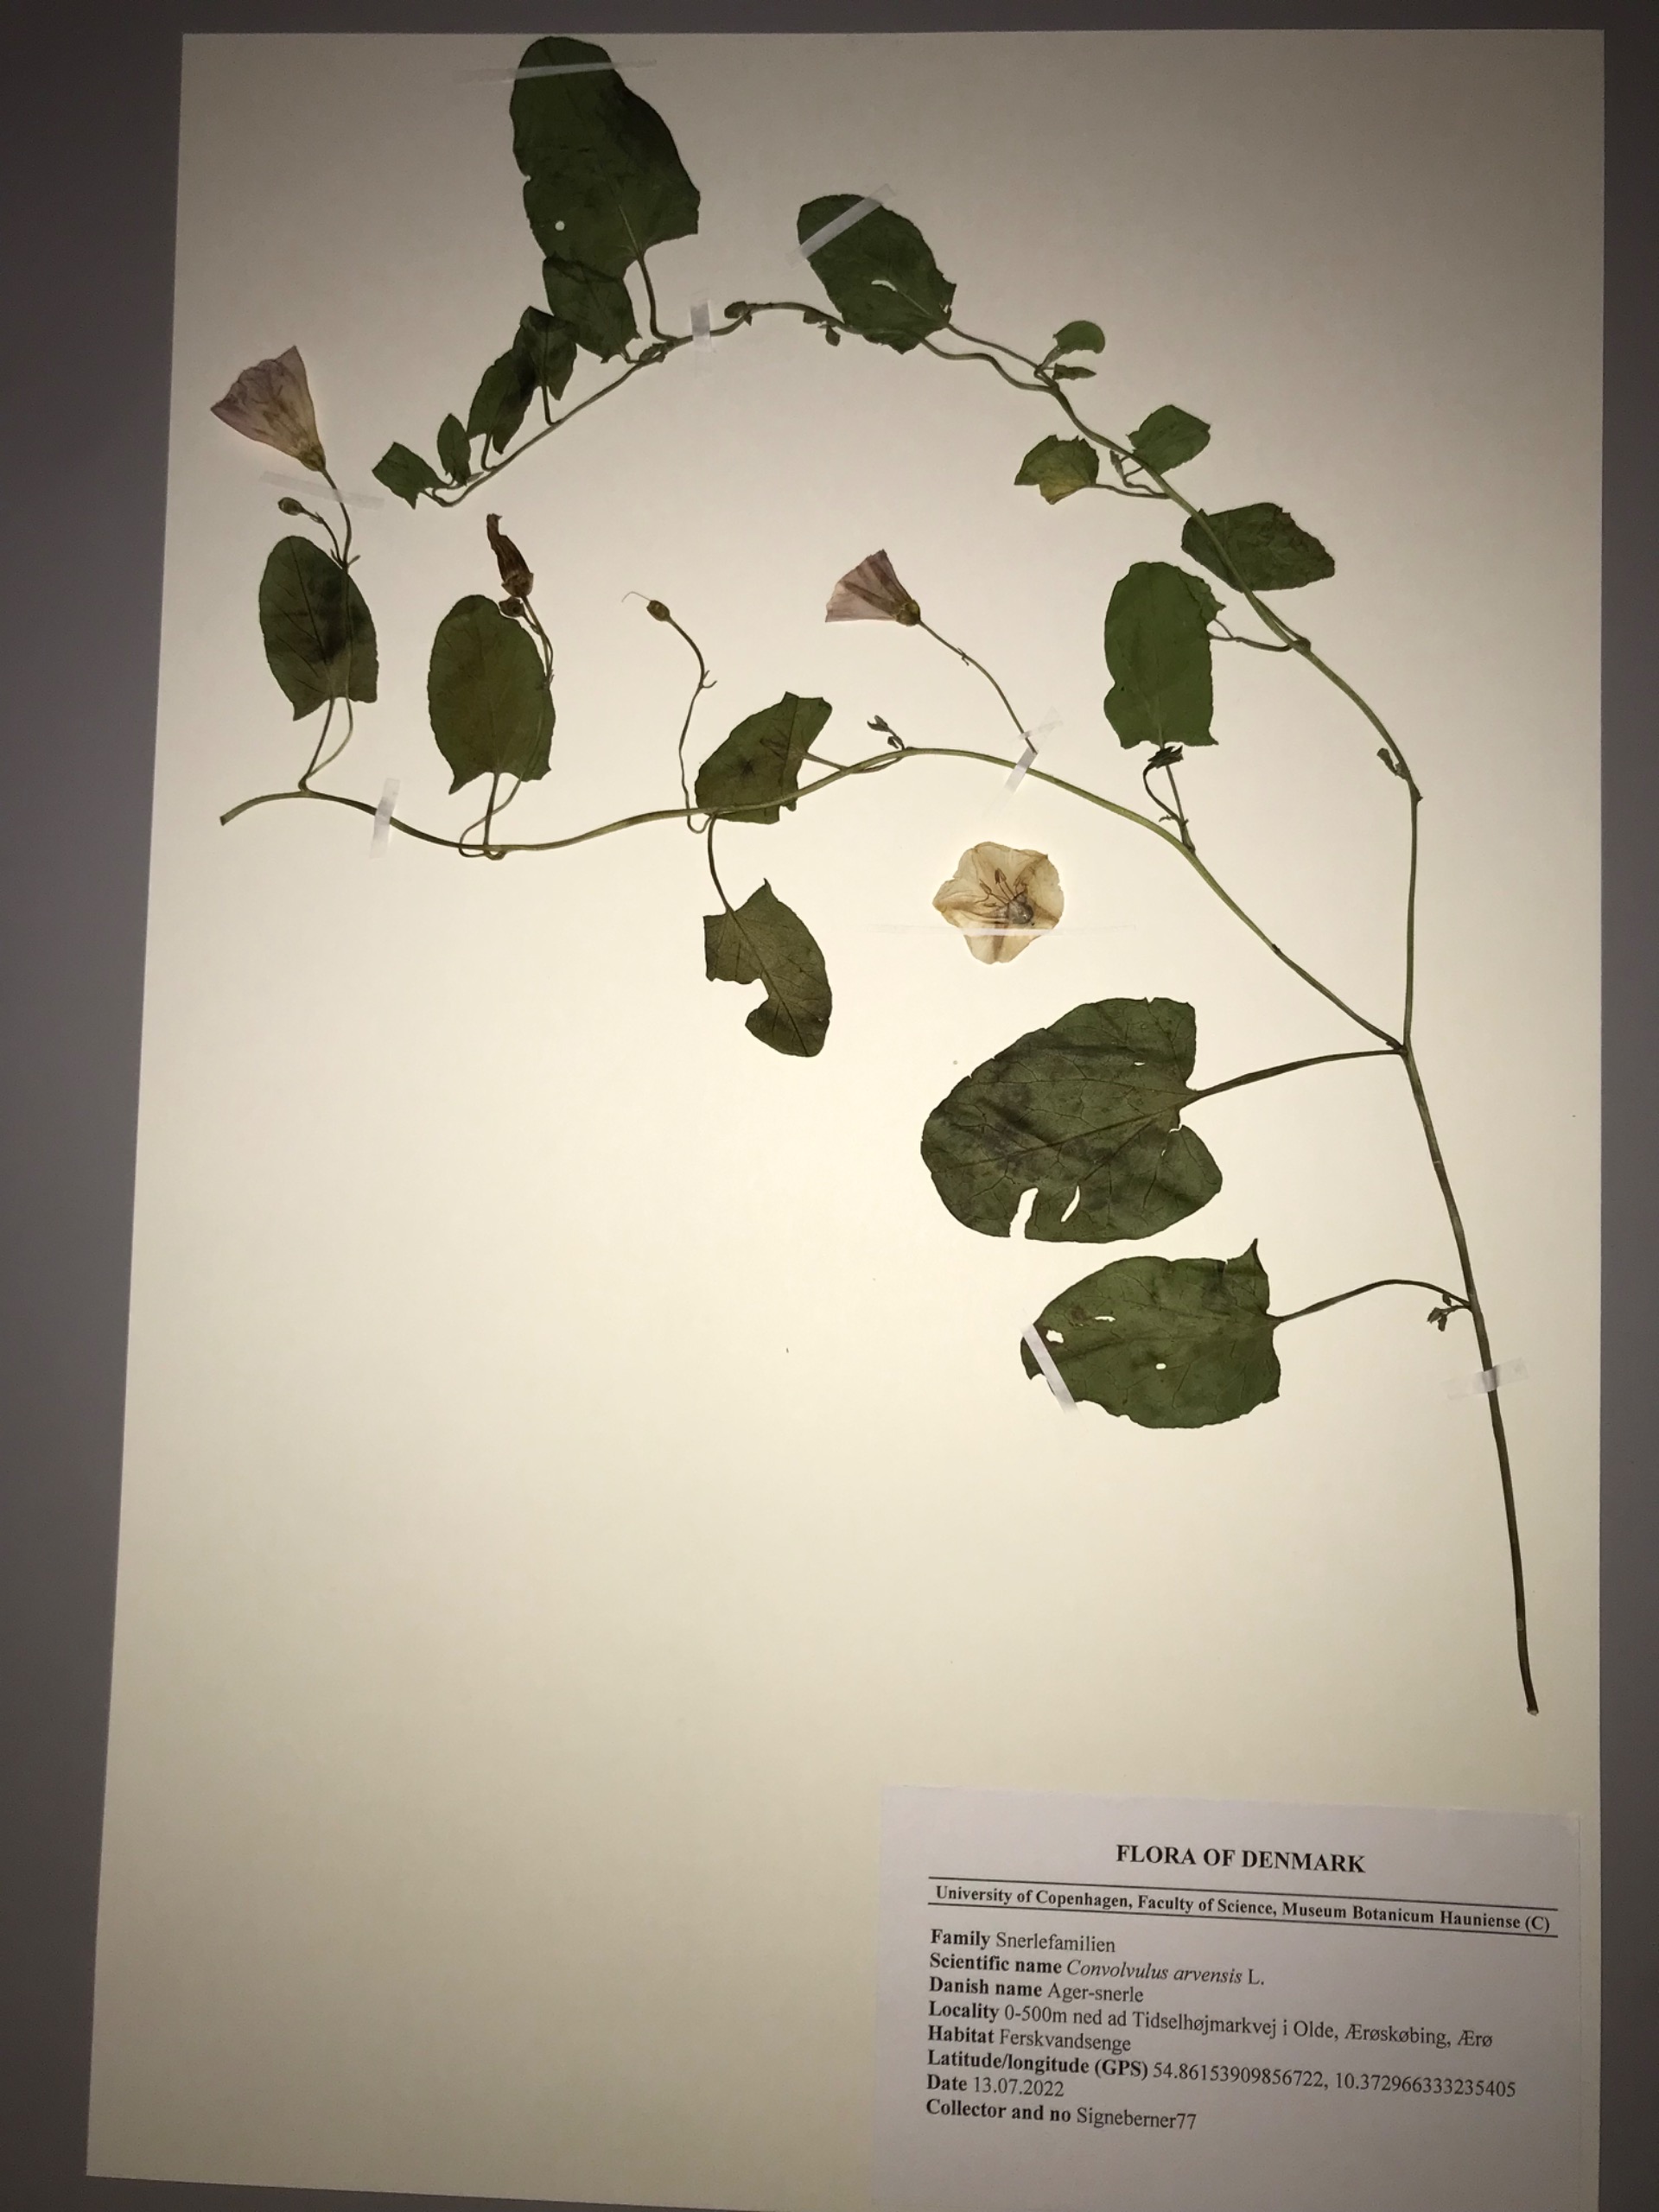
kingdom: Plantae
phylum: Tracheophyta
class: Magnoliopsida
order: Solanales
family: Convolvulaceae
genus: Convolvulus
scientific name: Convolvulus arvensis
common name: Ager-snerle
